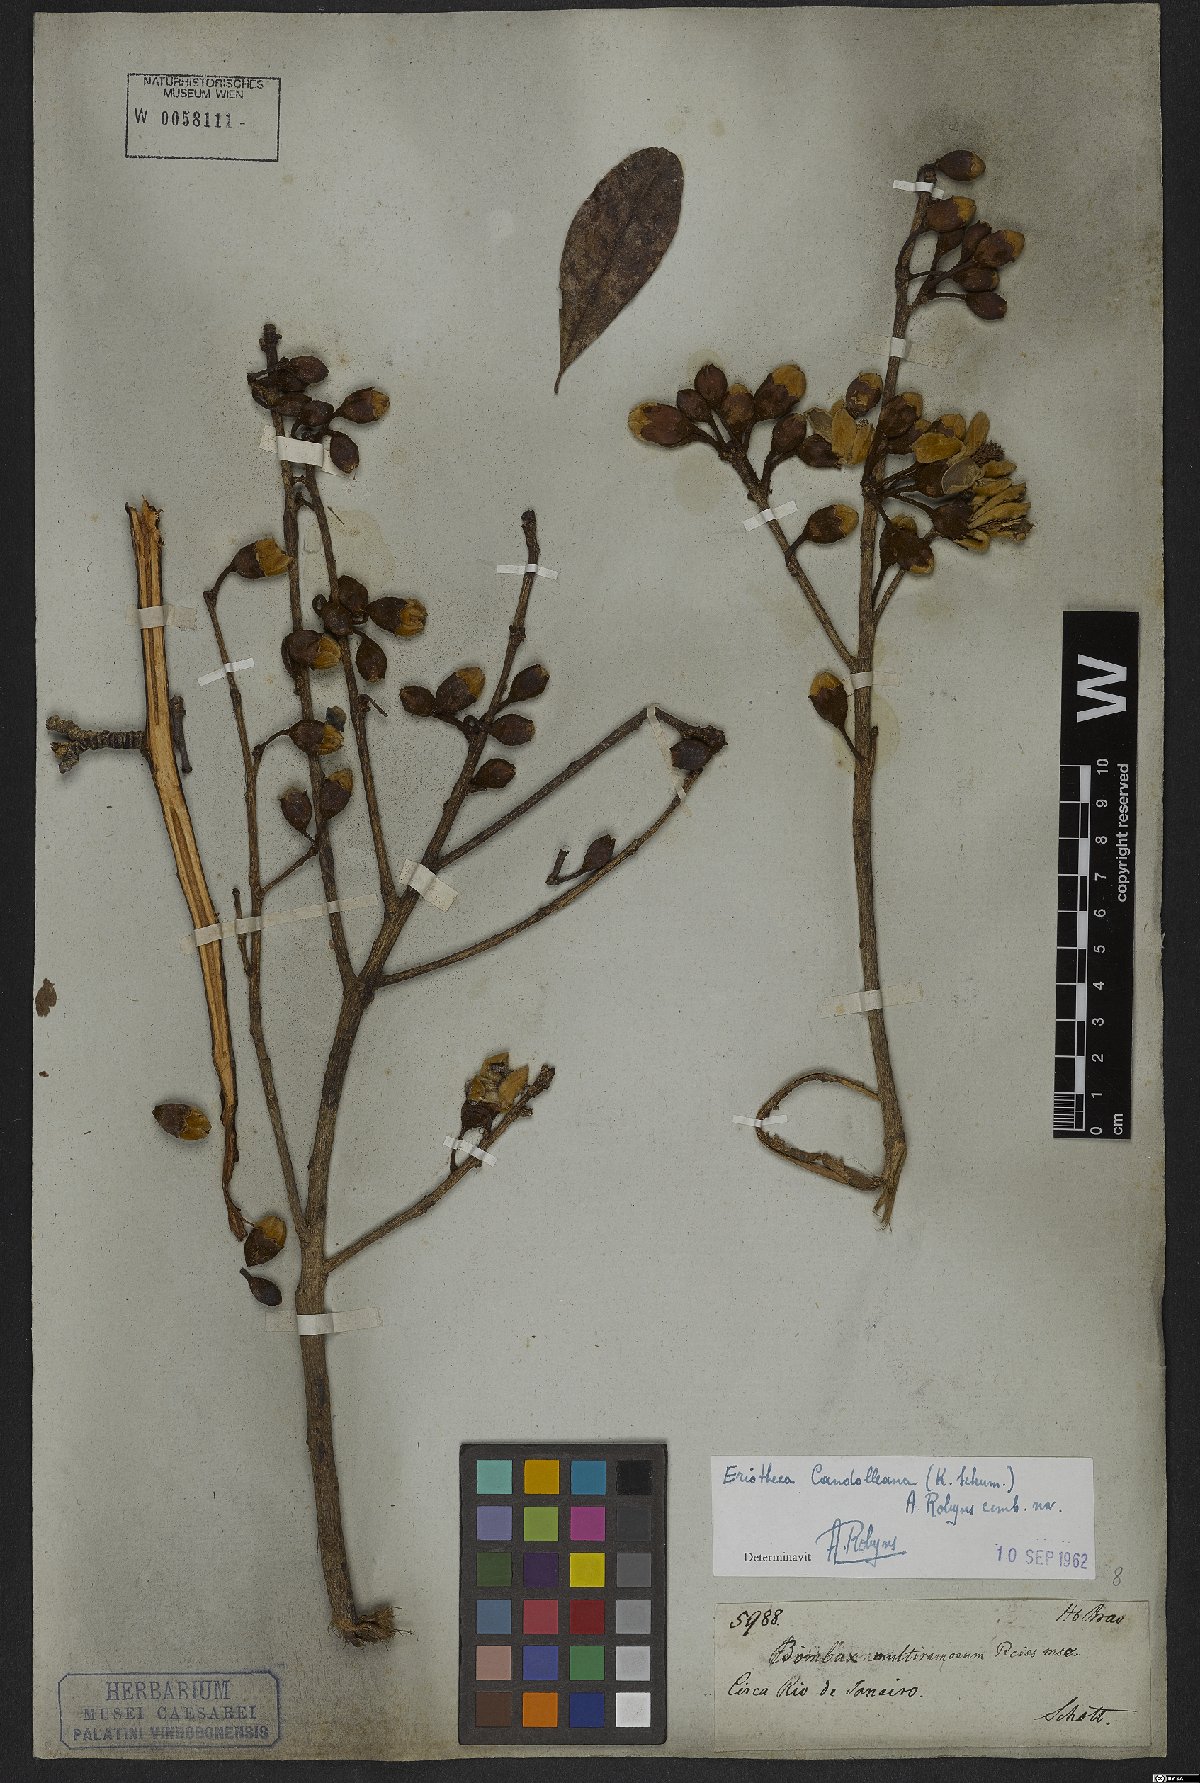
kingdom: Plantae
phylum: Tracheophyta
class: Magnoliopsida
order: Malvales
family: Malvaceae
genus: Eriotheca
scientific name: Eriotheca candolleana
